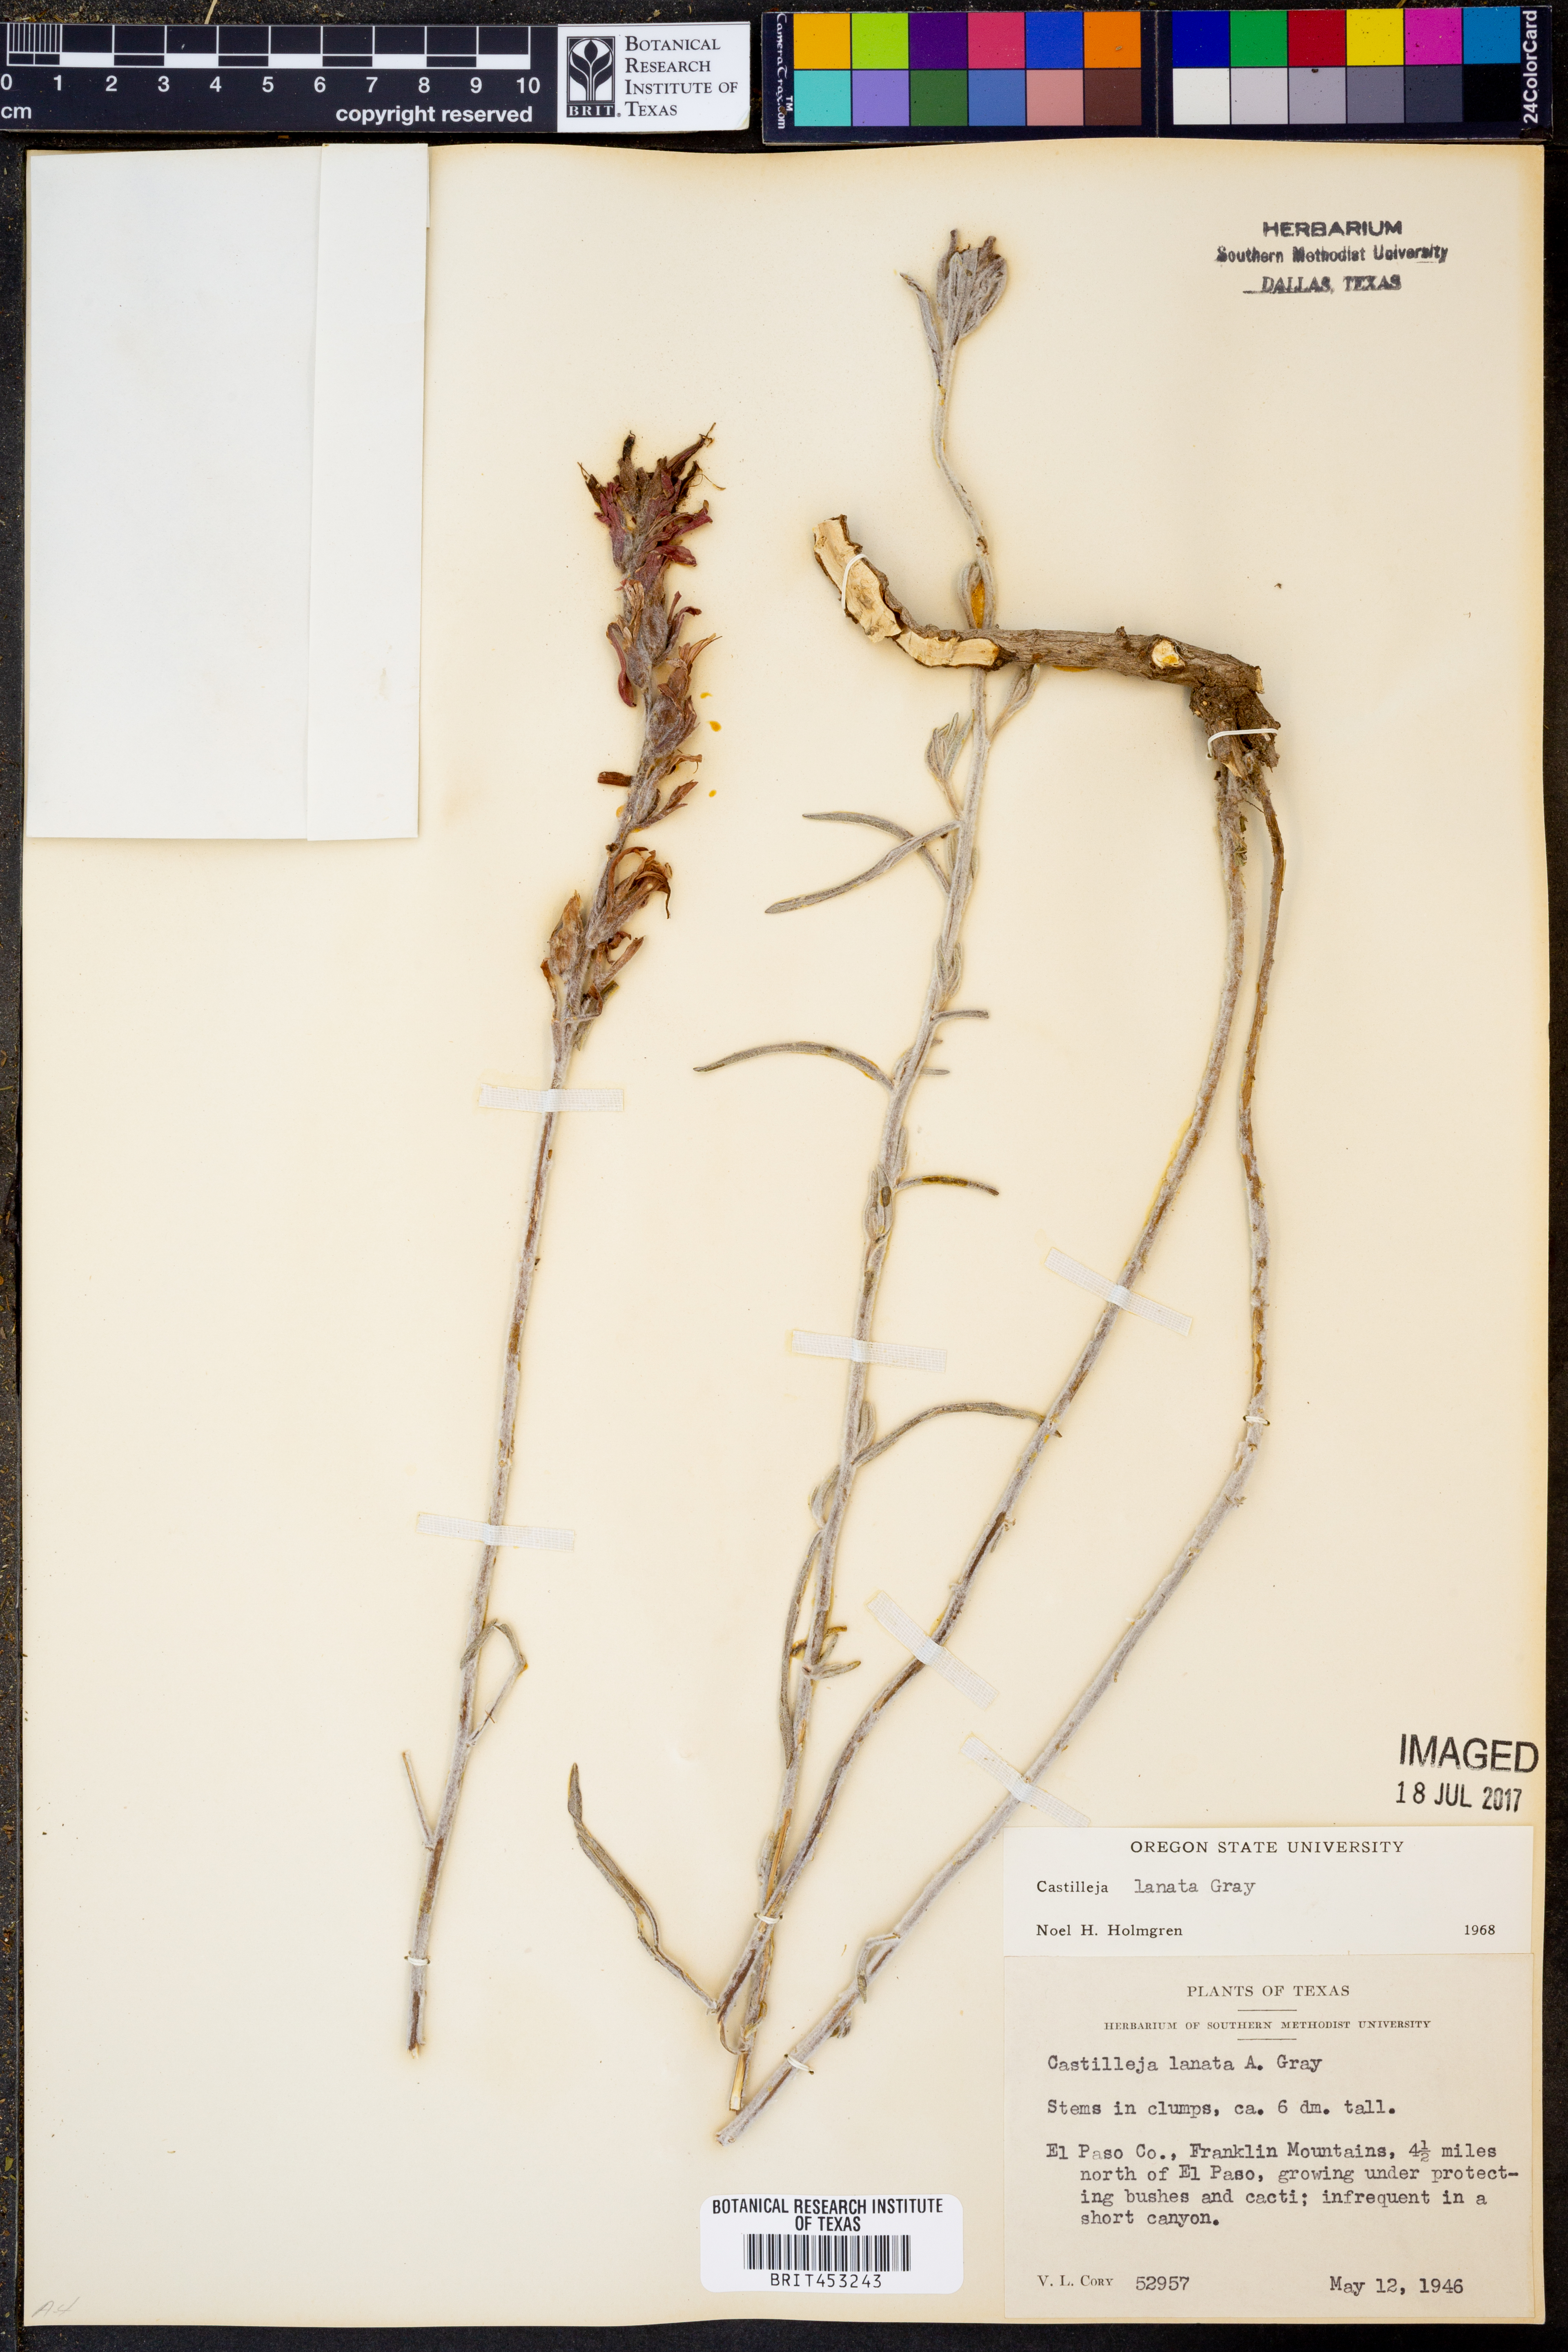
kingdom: Plantae
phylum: Tracheophyta
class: Magnoliopsida
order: Lamiales
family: Orobanchaceae
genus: Castilleja
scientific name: Castilleja lanata
